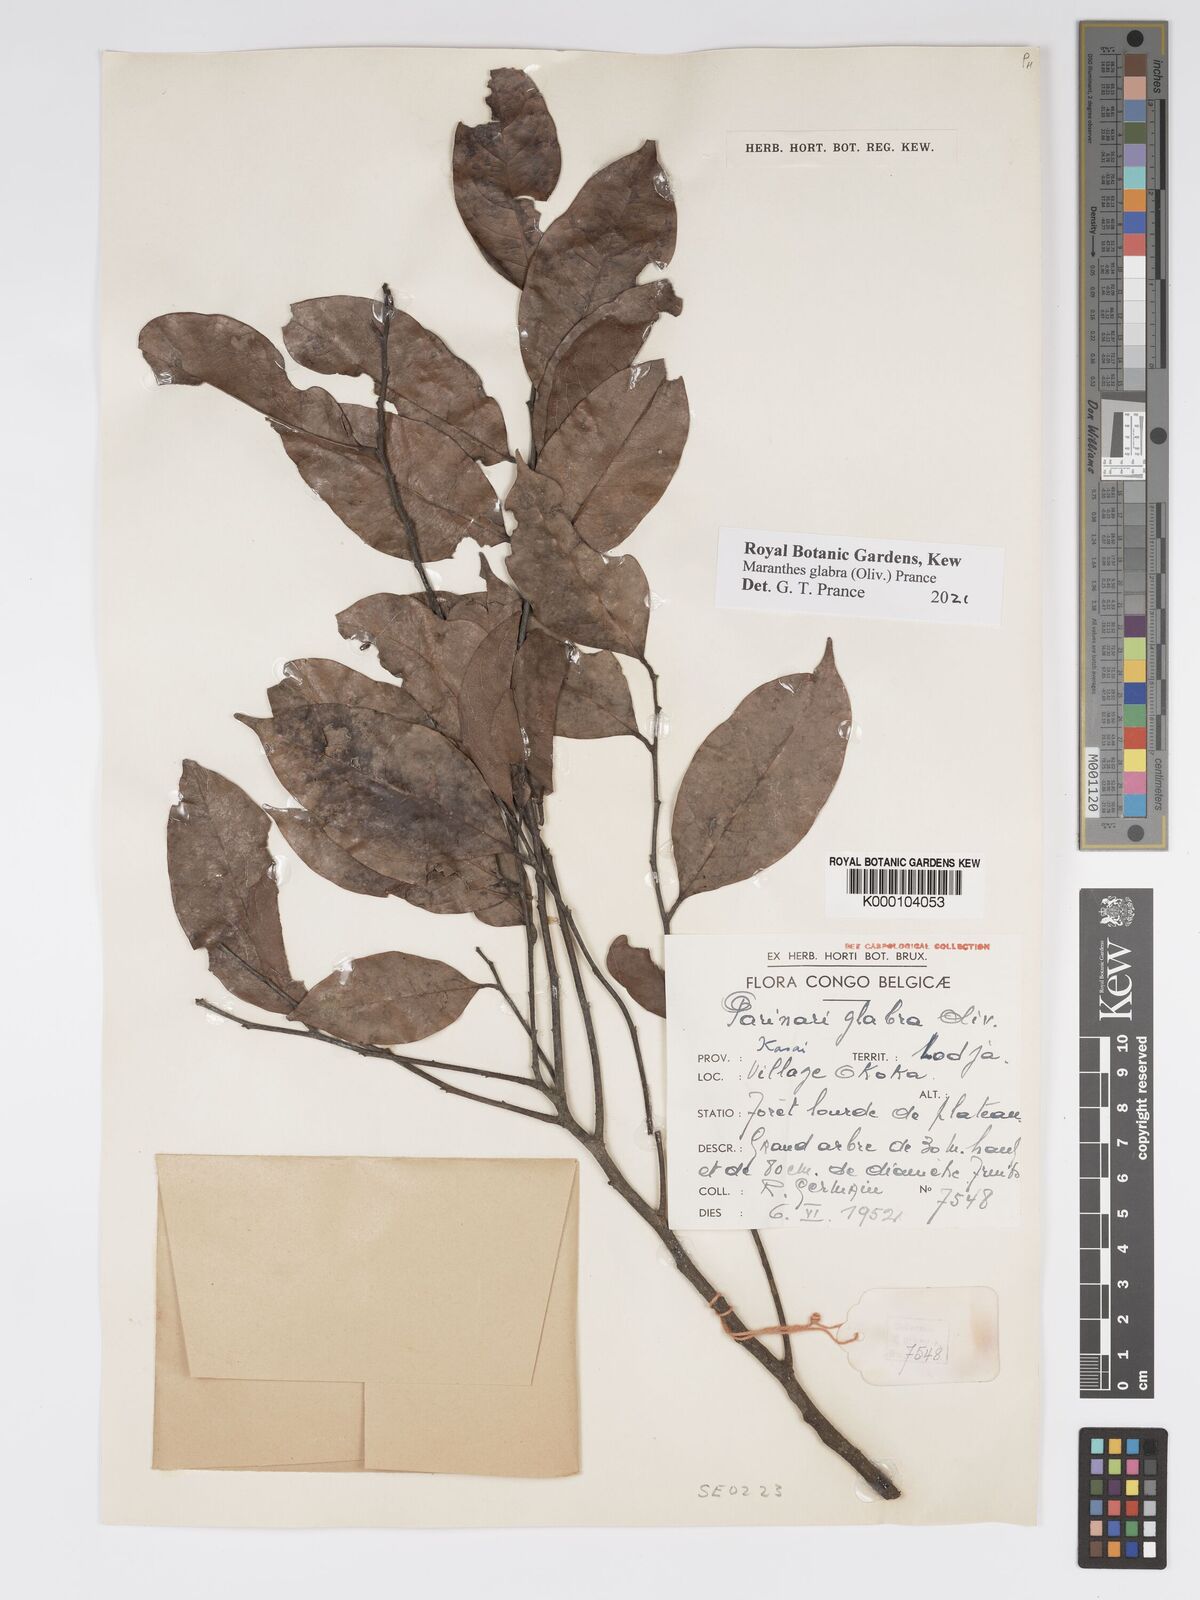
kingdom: Plantae
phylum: Tracheophyta
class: Magnoliopsida
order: Malpighiales
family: Chrysobalanaceae
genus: Maranthes
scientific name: Maranthes glabra
